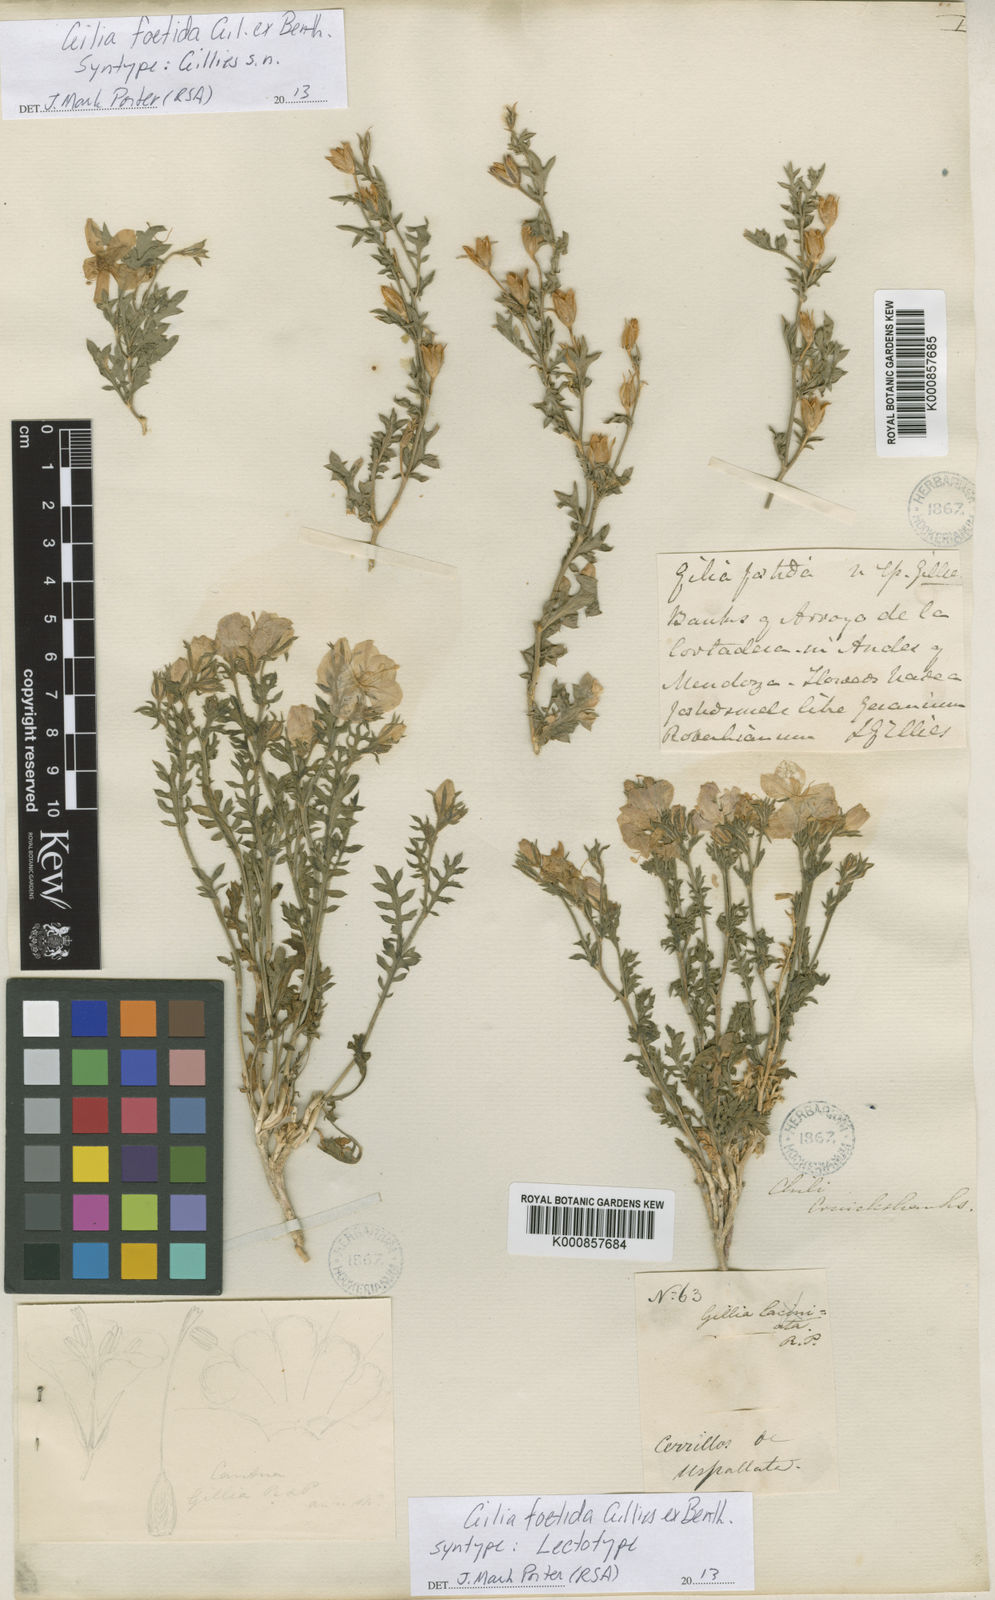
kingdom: Plantae
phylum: Tracheophyta
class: Magnoliopsida
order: Ericales
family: Polemoniaceae
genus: Giliastrum
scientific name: Giliastrum foetidum
